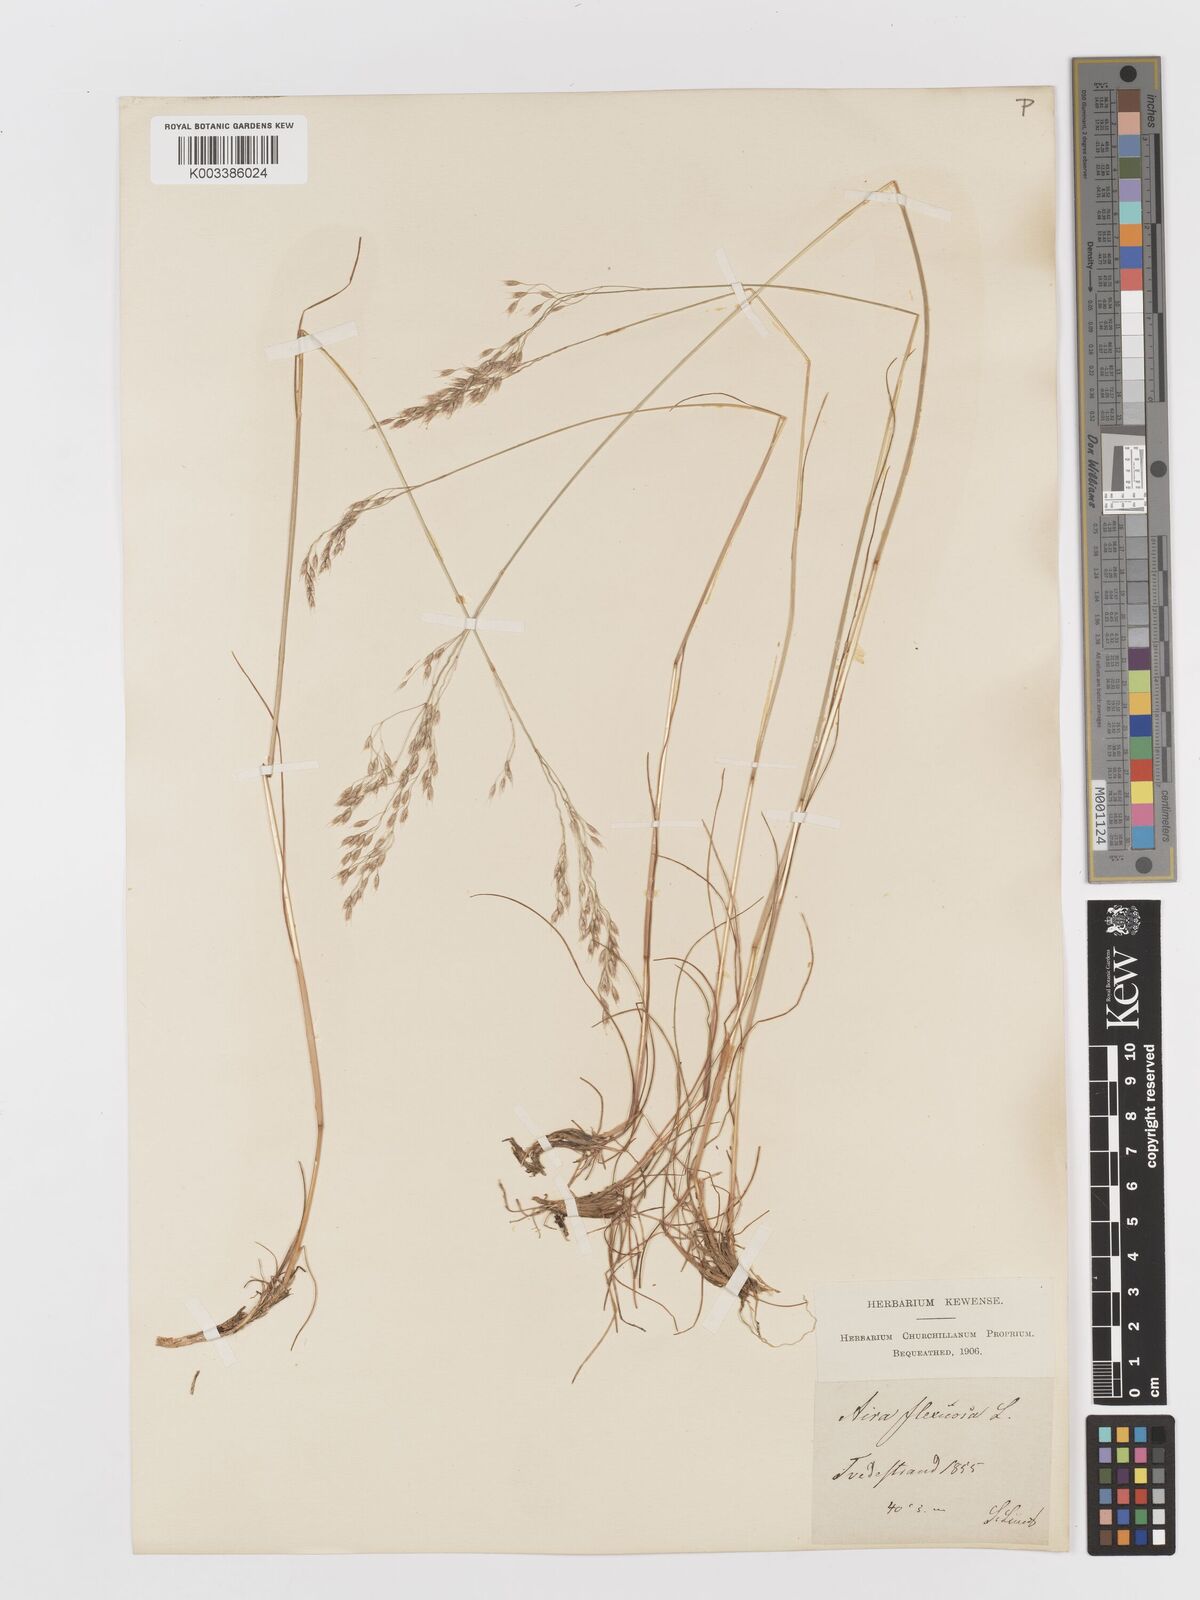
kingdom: Plantae
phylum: Tracheophyta
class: Liliopsida
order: Poales
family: Poaceae
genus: Avenella
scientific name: Avenella flexuosa
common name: Wavy hairgrass
